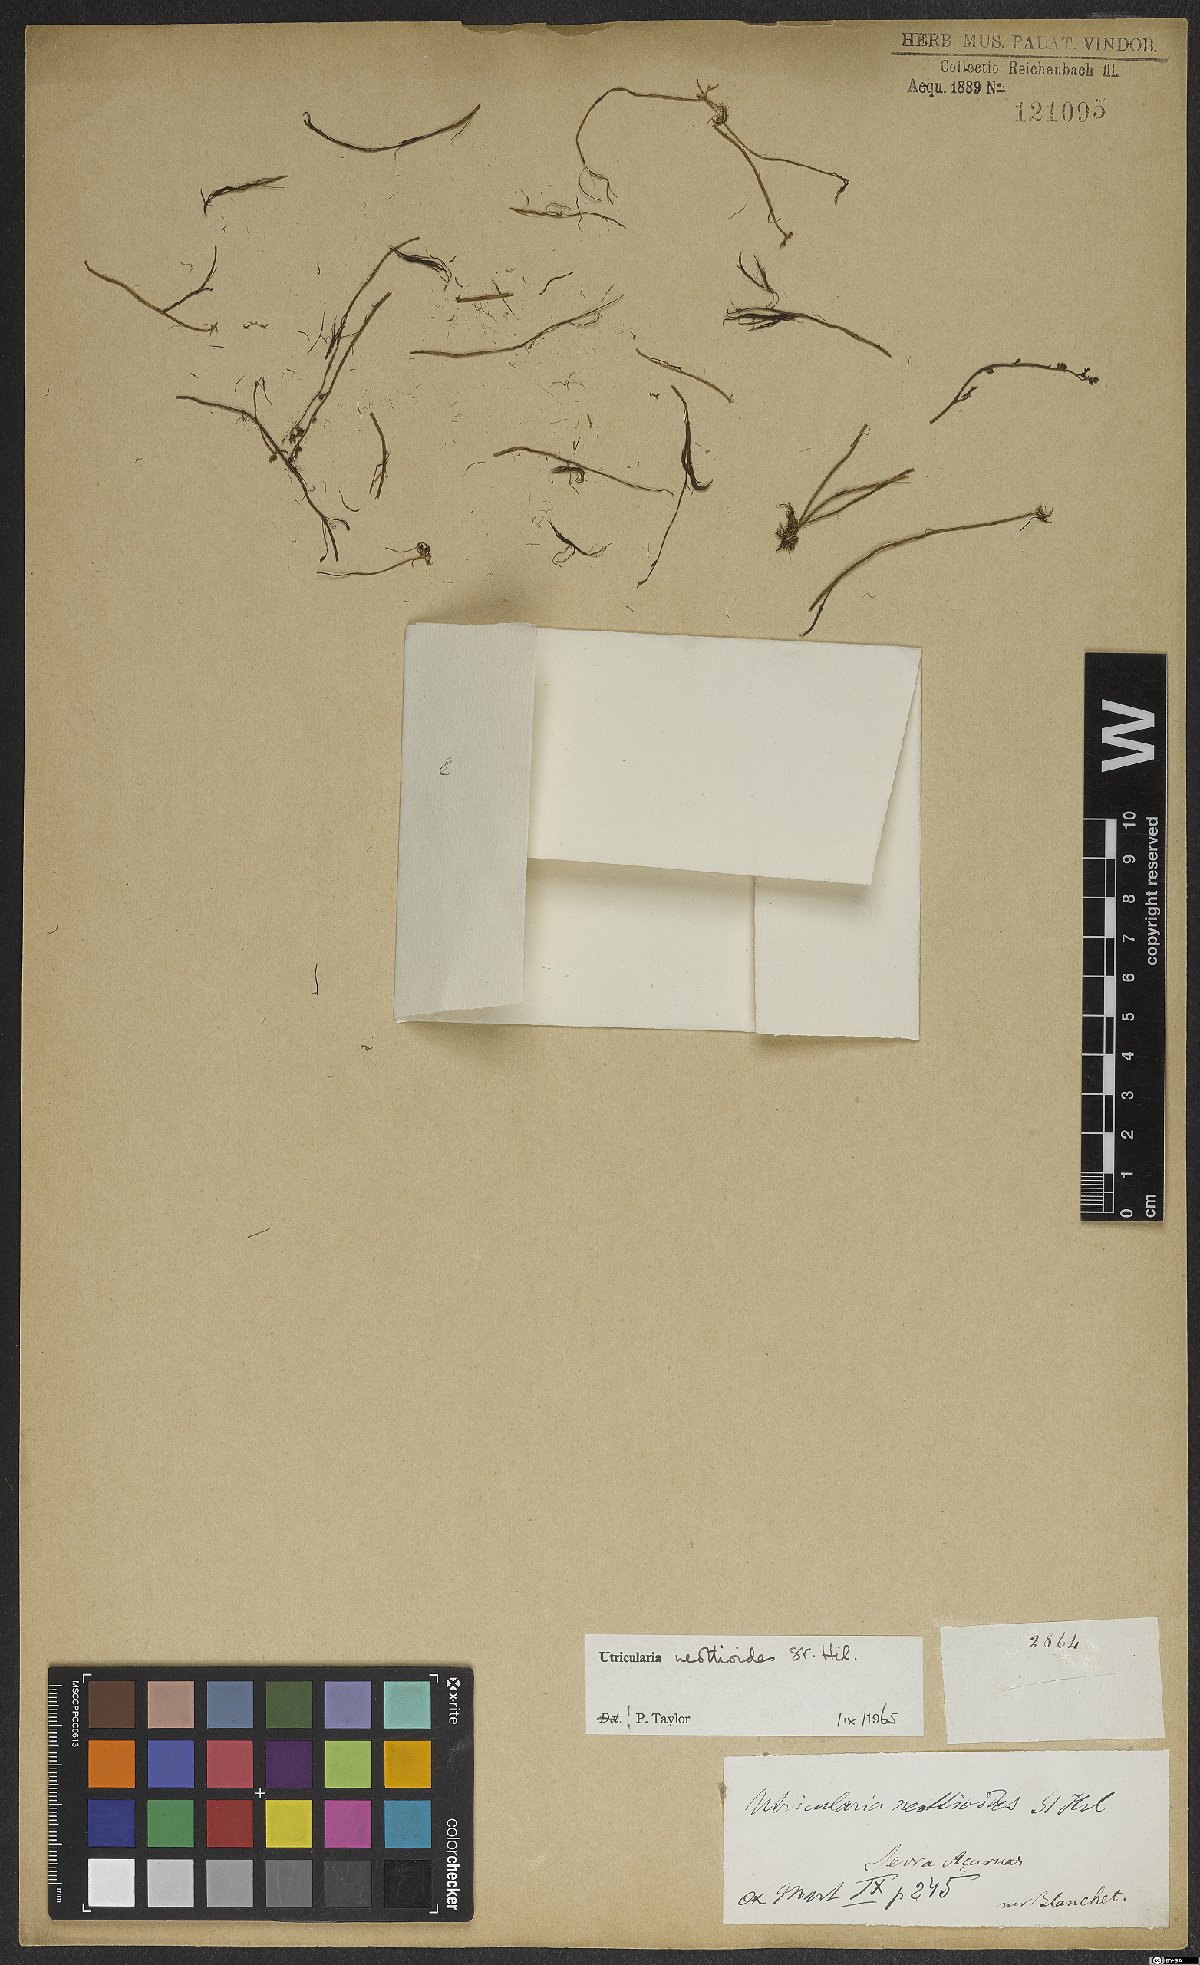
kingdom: Plantae
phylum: Tracheophyta
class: Magnoliopsida
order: Lamiales
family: Lentibulariaceae
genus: Utricularia
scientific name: Utricularia neottioides
